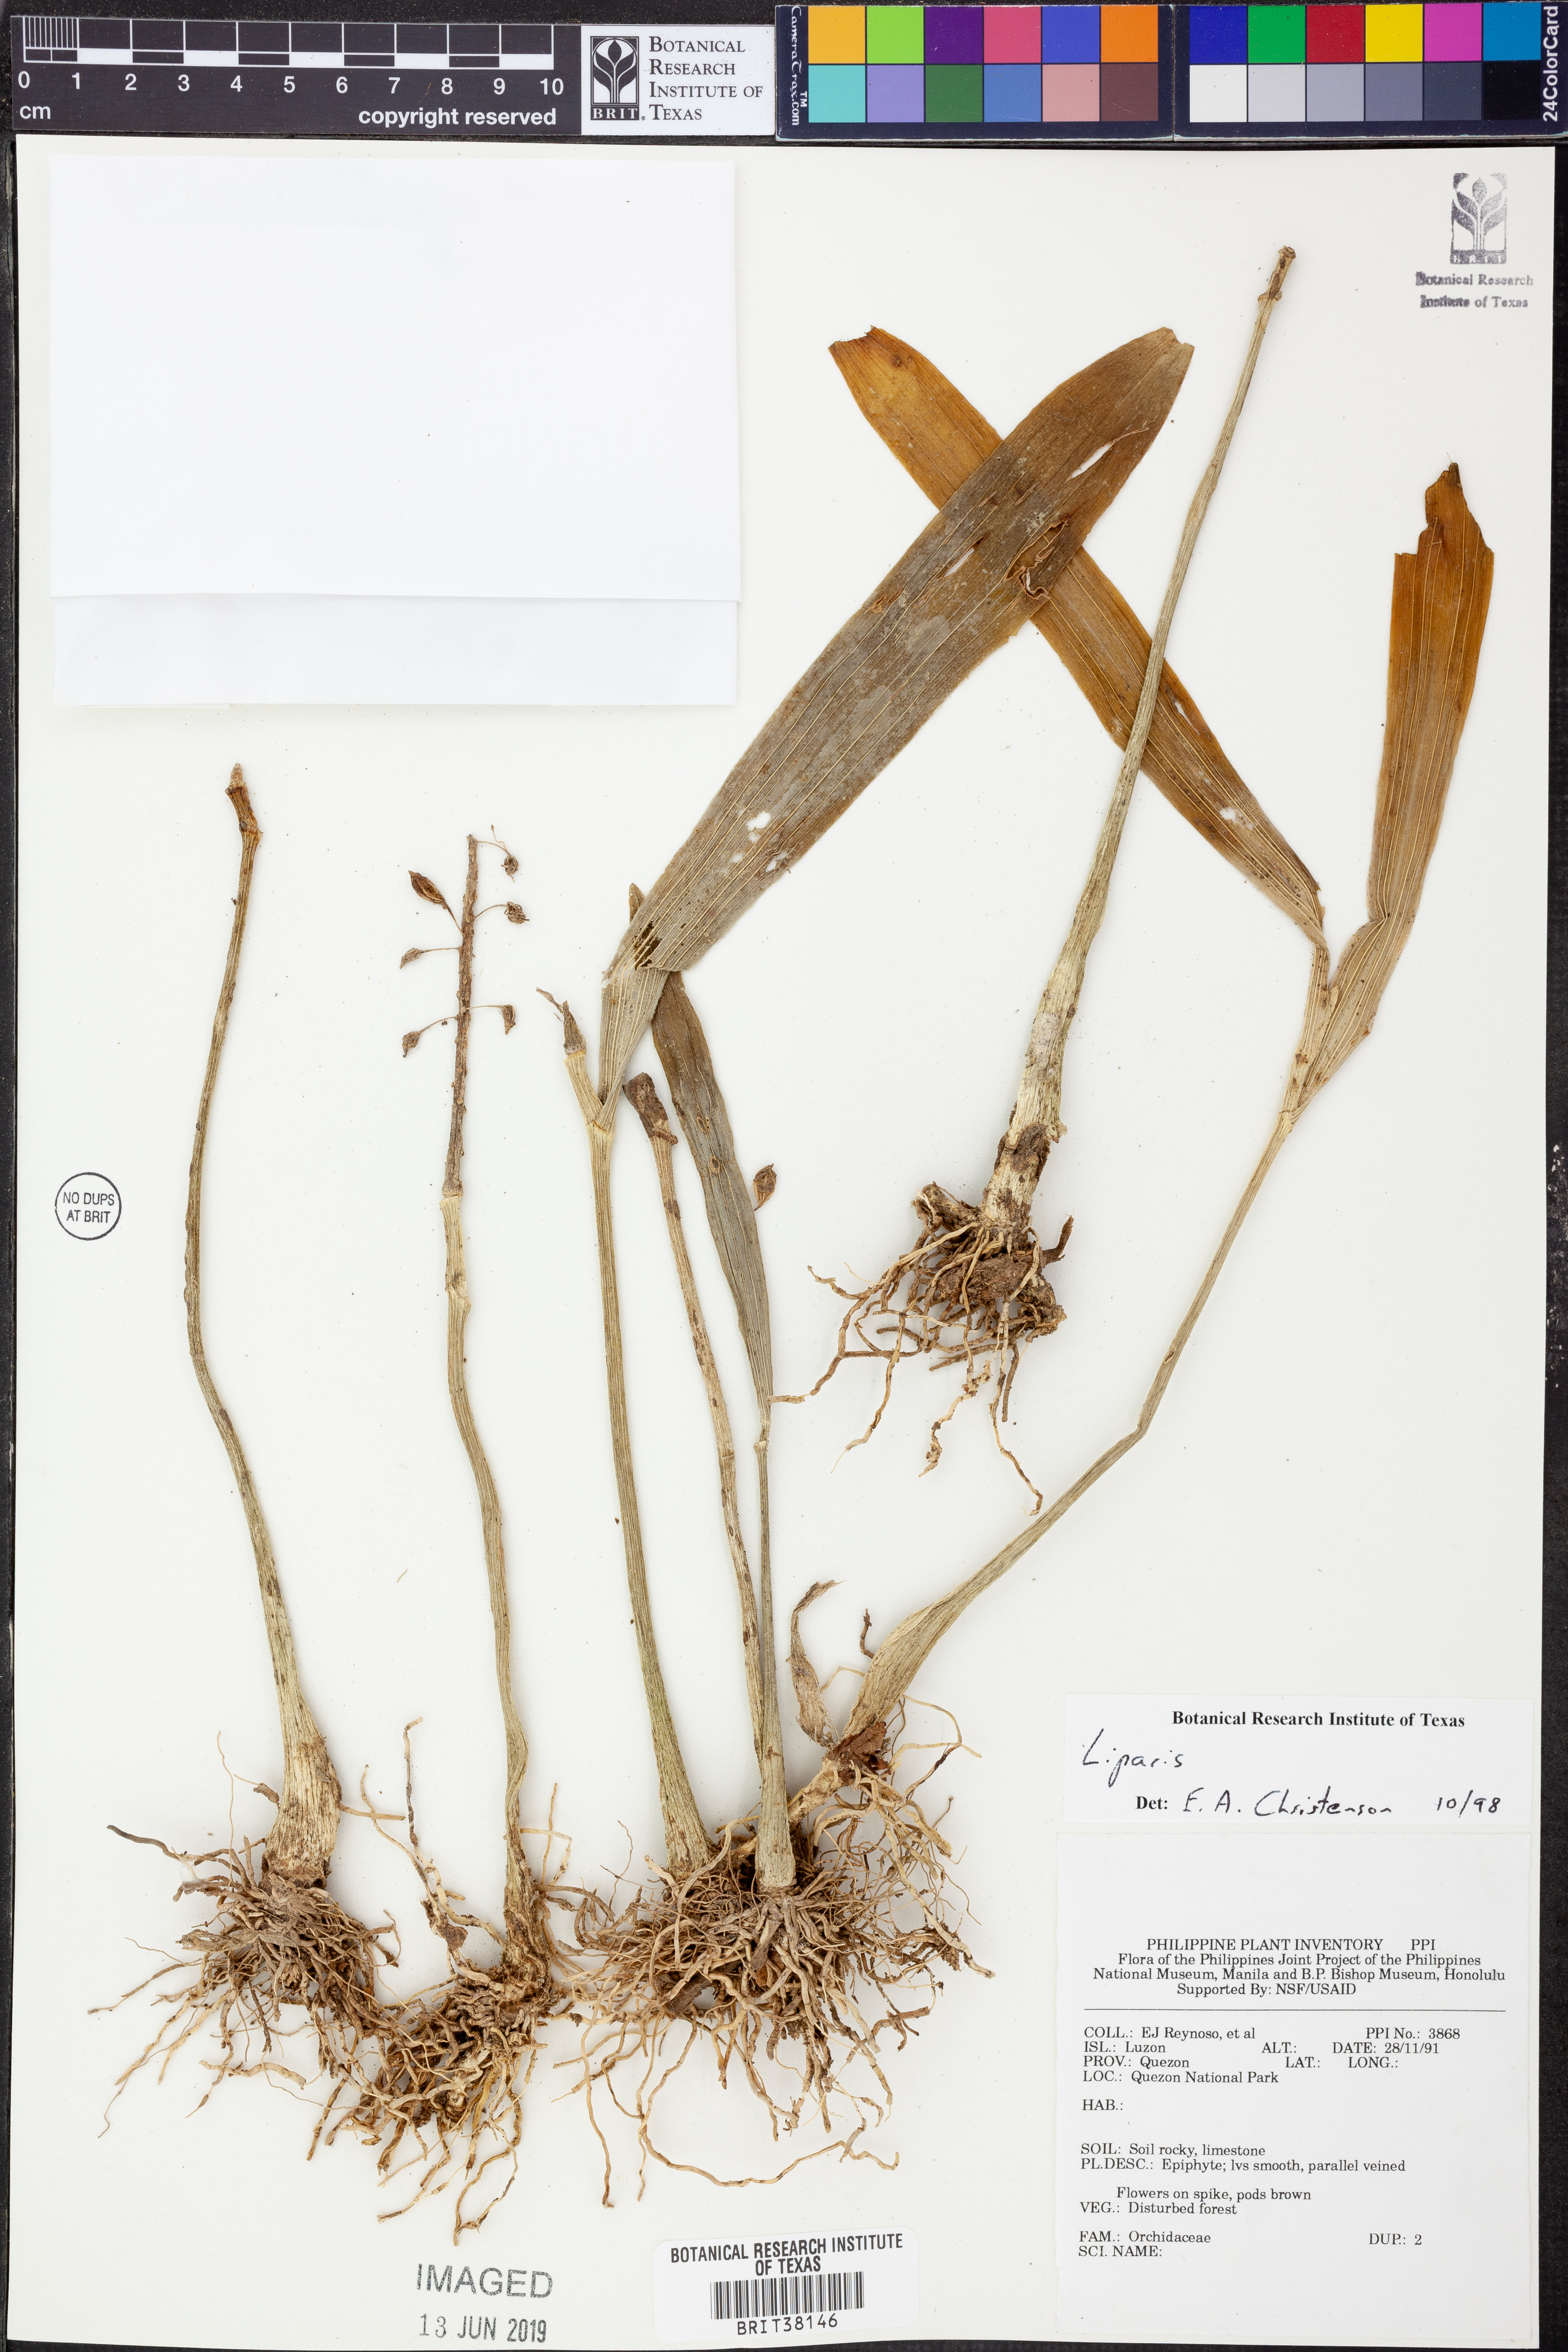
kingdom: Plantae
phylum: Tracheophyta
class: Magnoliopsida
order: Fabales
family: Fabaceae
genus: Liparia
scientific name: Liparia
